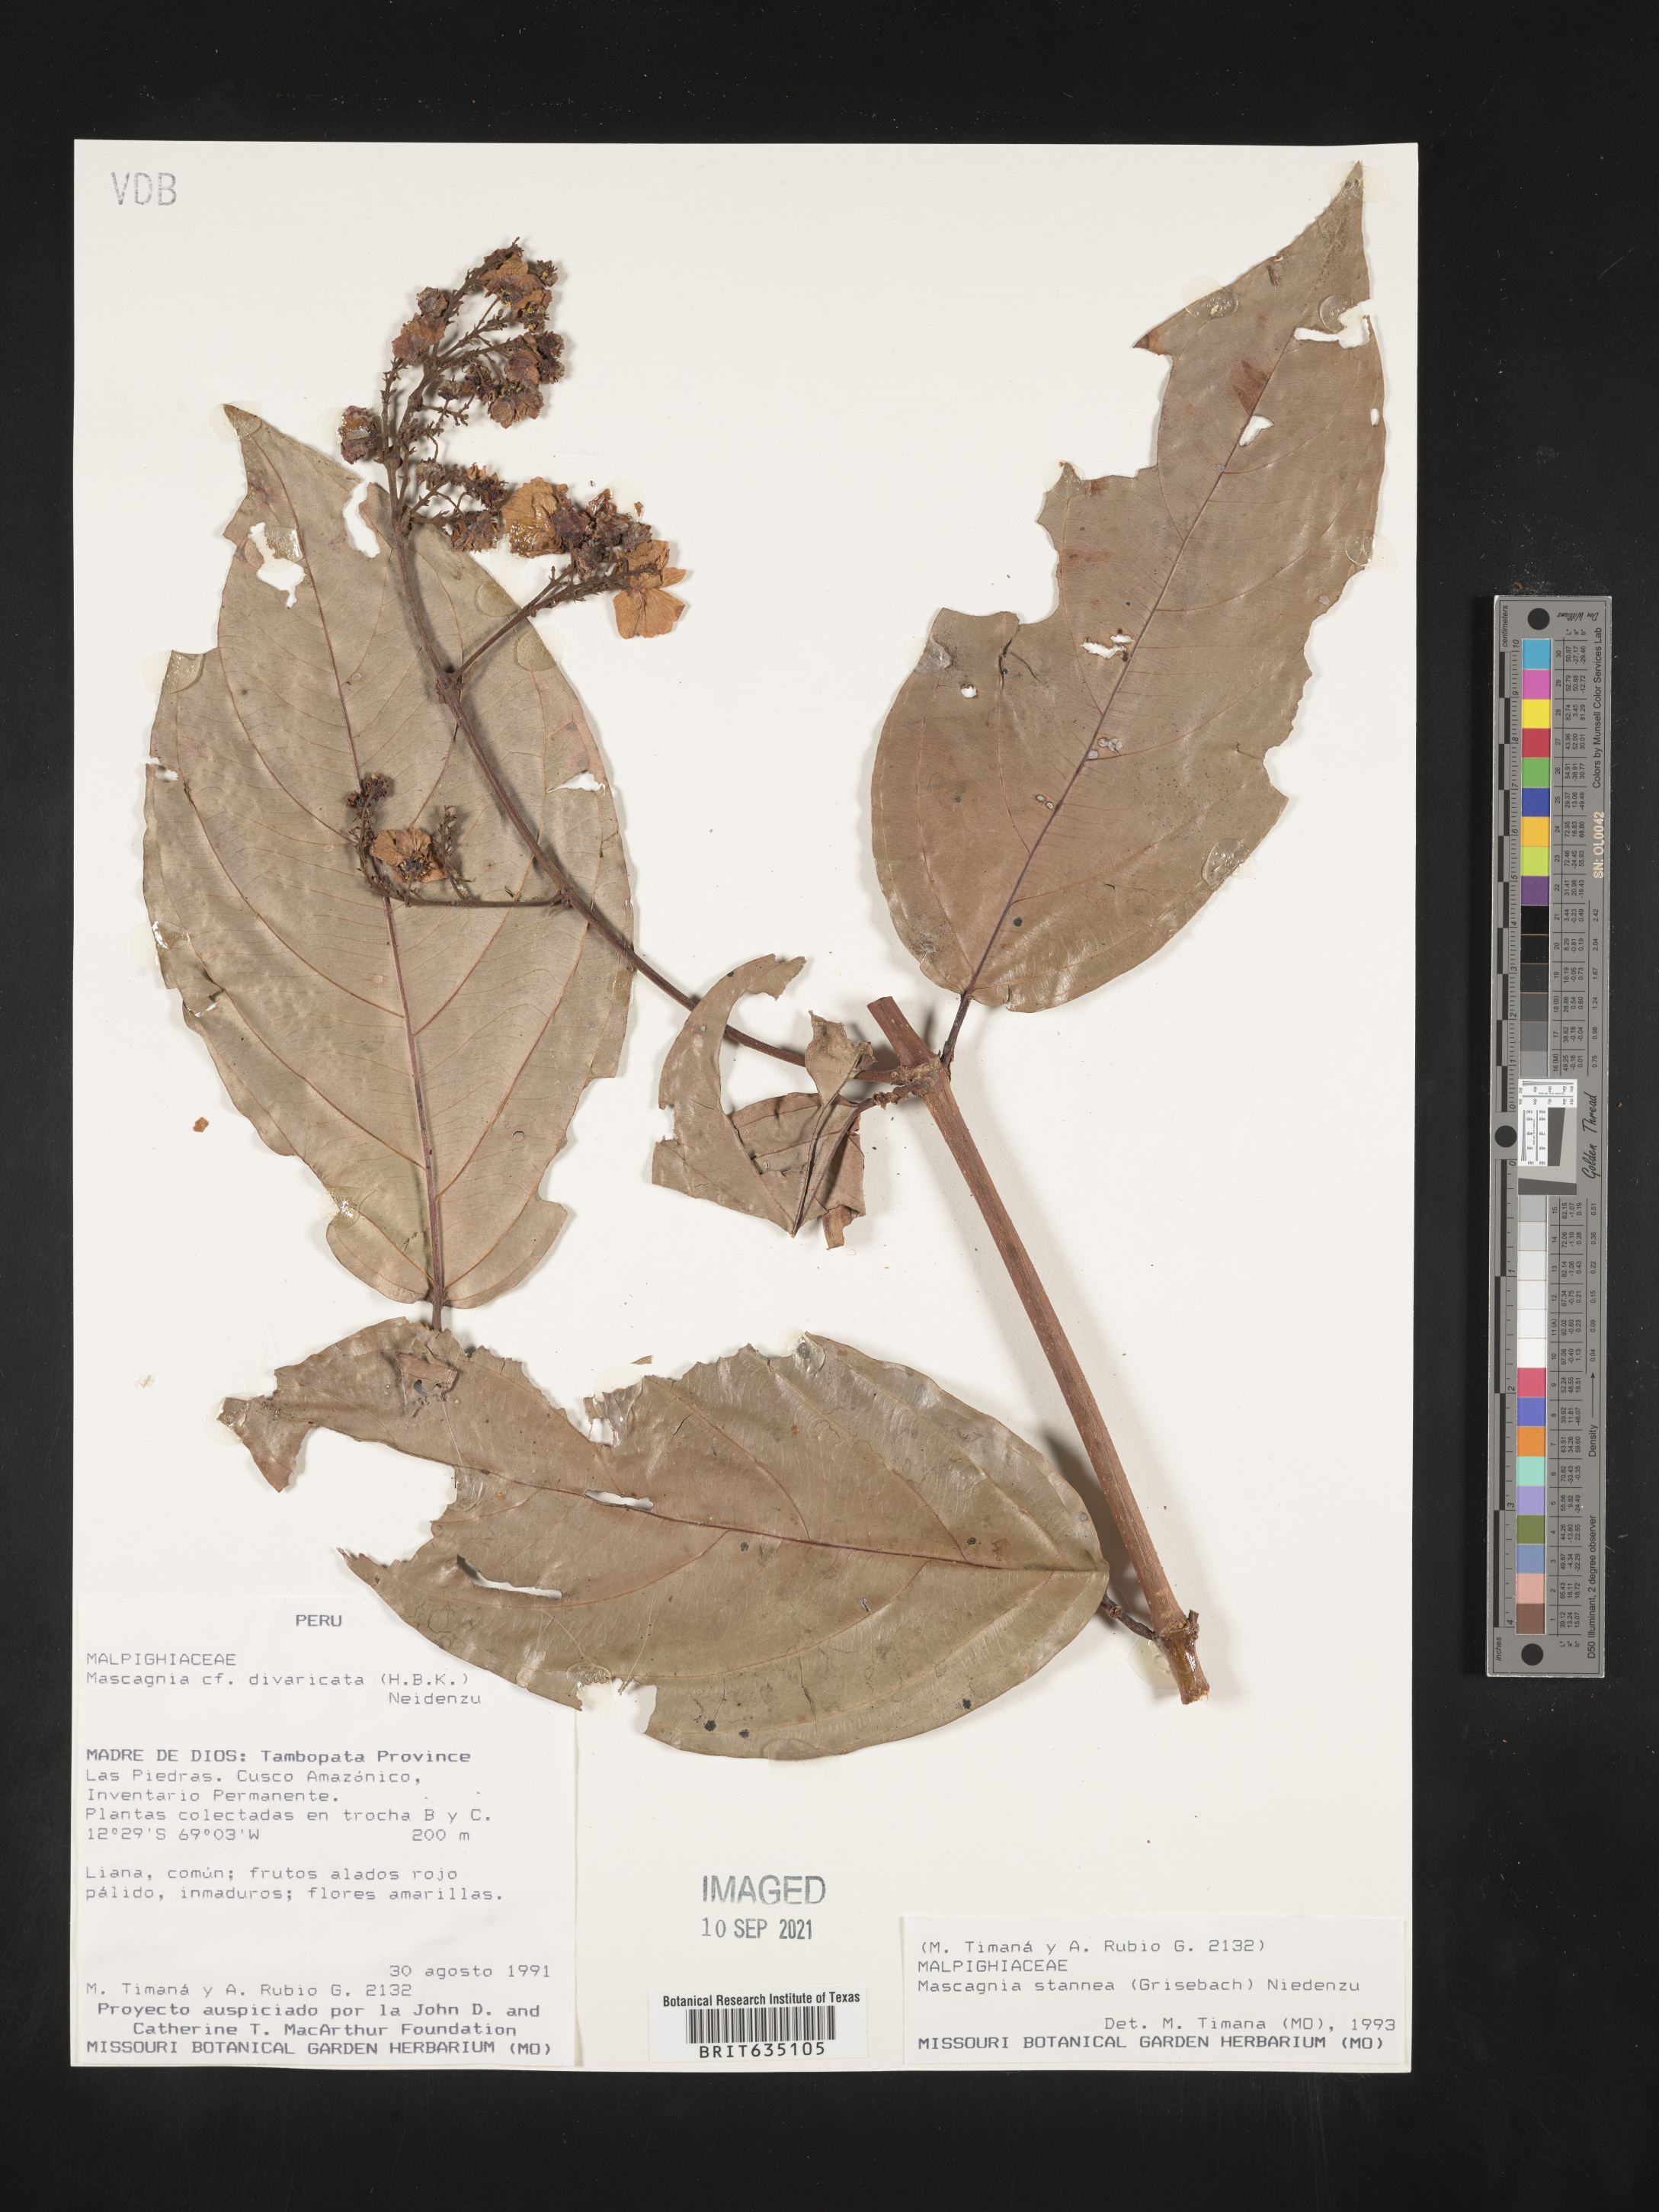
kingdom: Plantae
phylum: Tracheophyta
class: Magnoliopsida
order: Malpighiales
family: Malpighiaceae
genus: Mascagnia
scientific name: Mascagnia
